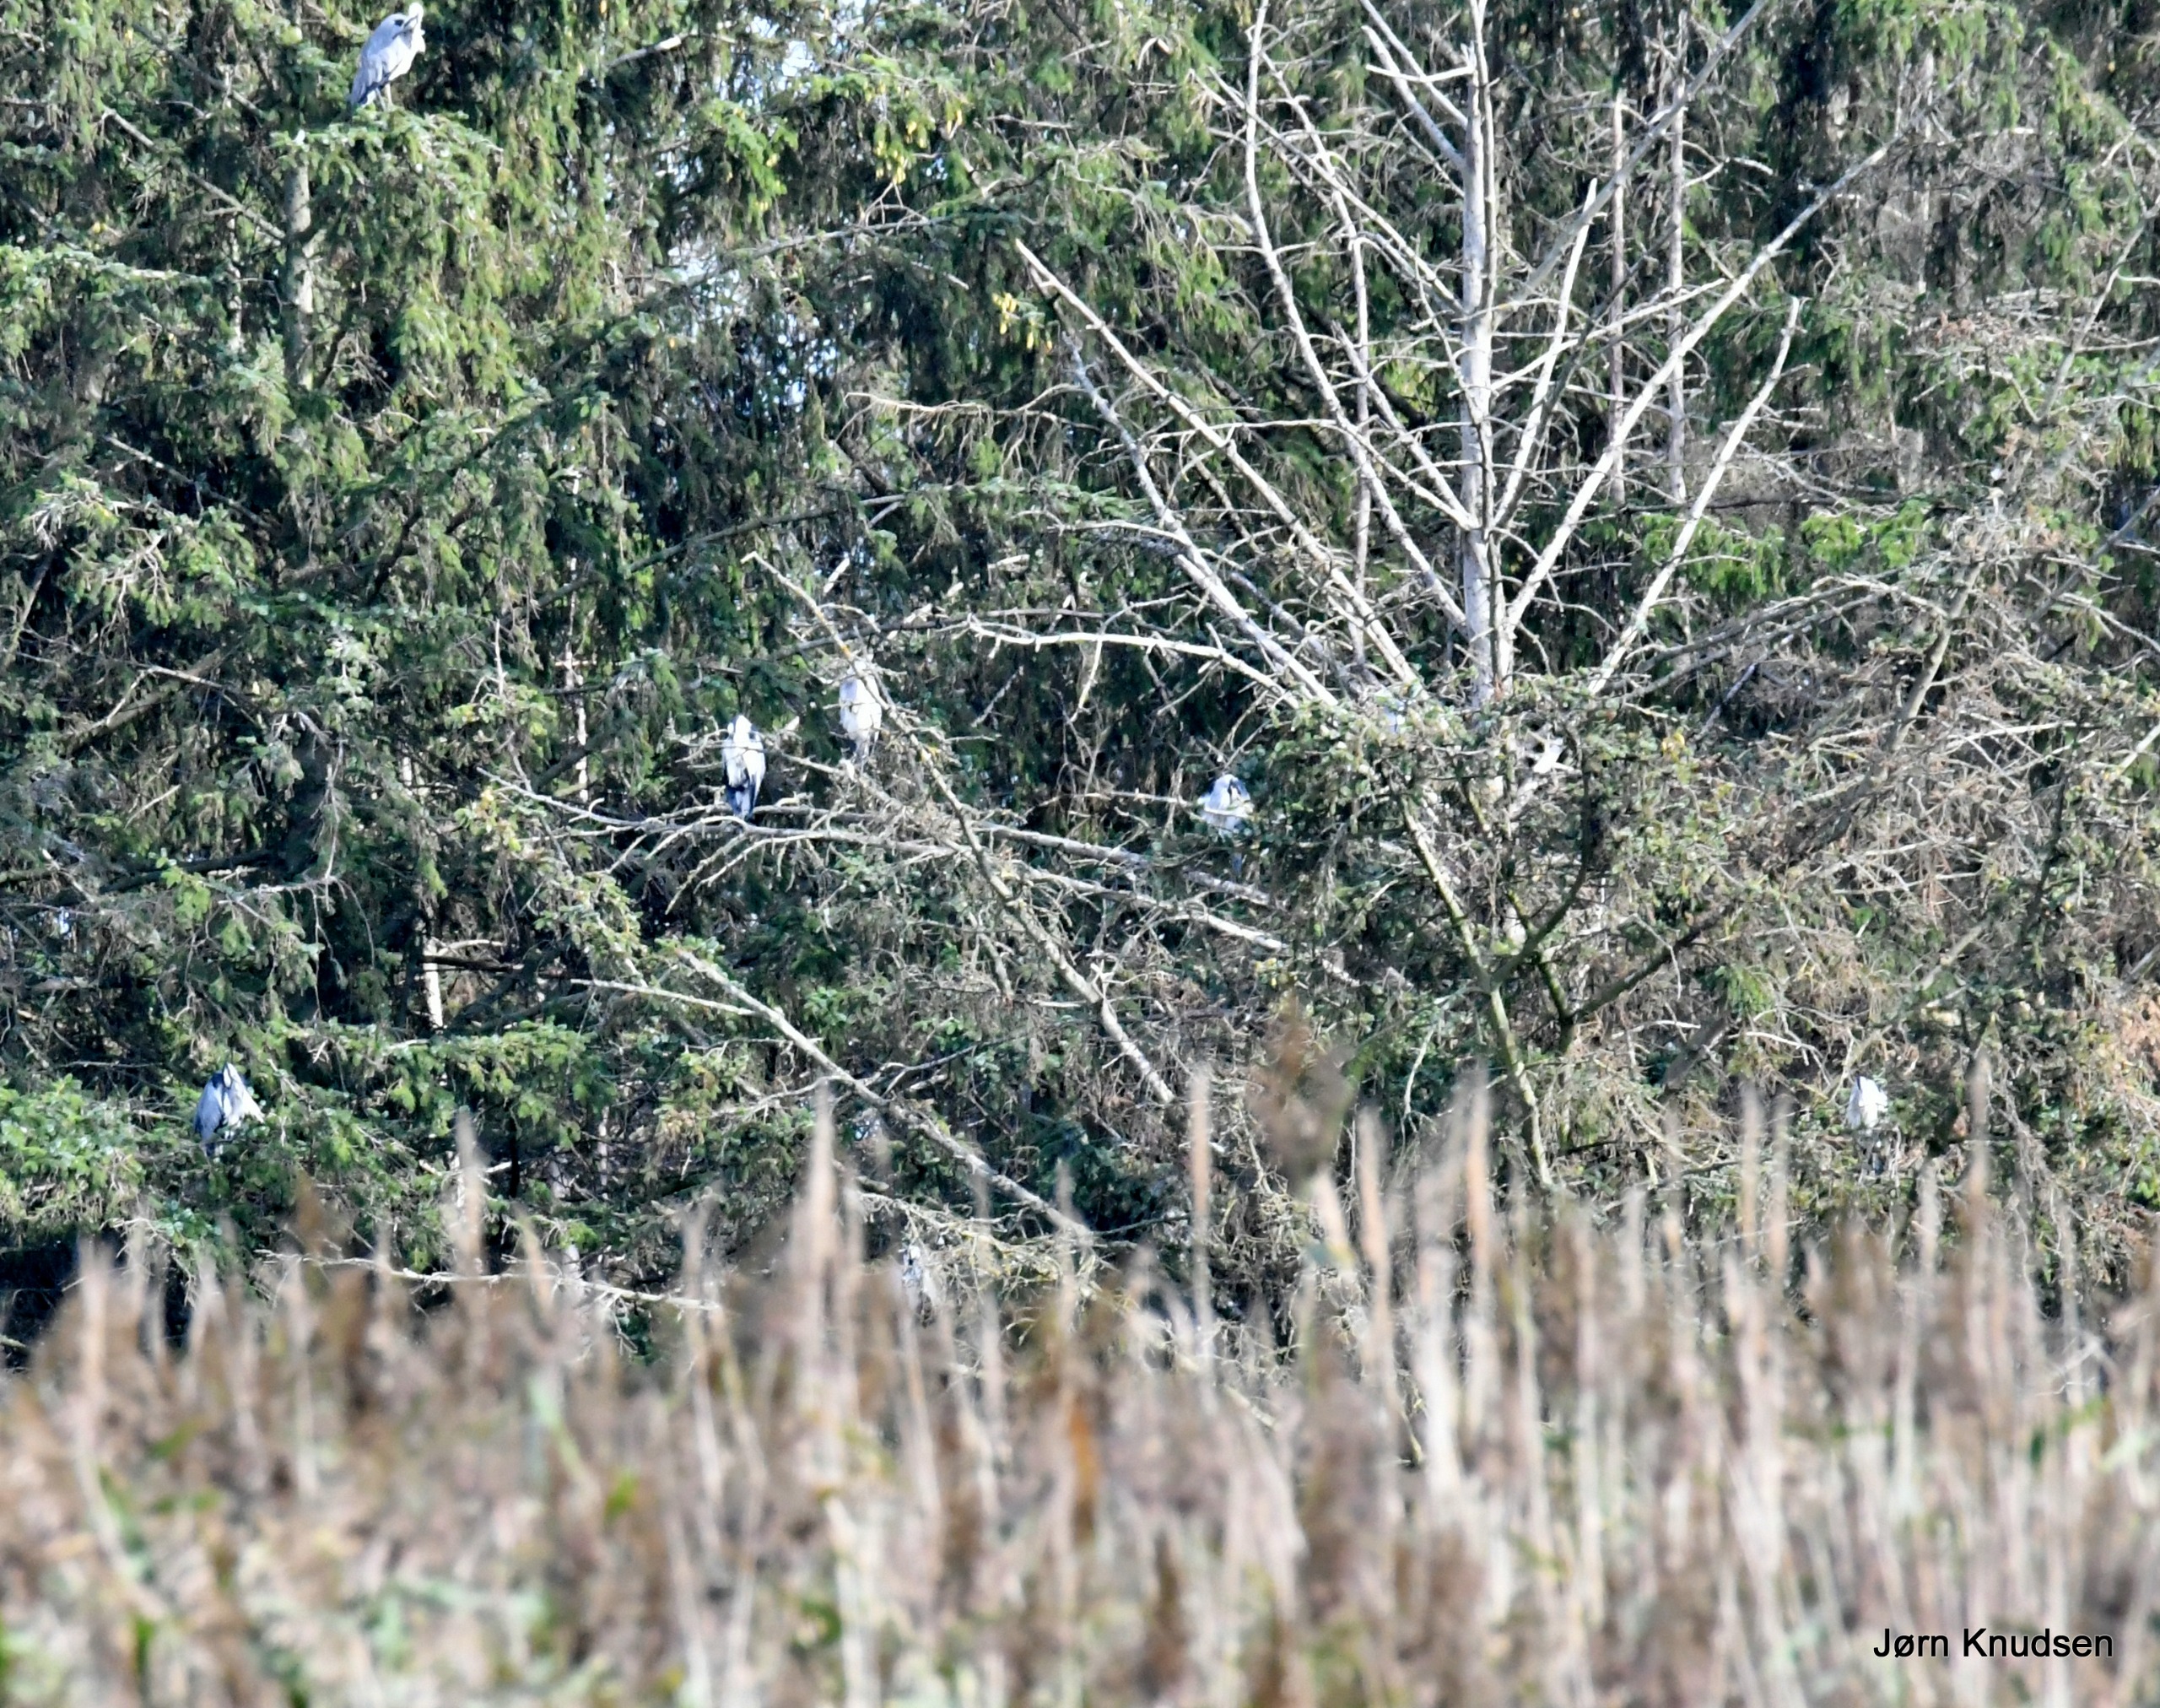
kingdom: Animalia
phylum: Chordata
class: Aves
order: Pelecaniformes
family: Ardeidae
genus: Ardea
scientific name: Ardea cinerea
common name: Fiskehejre
